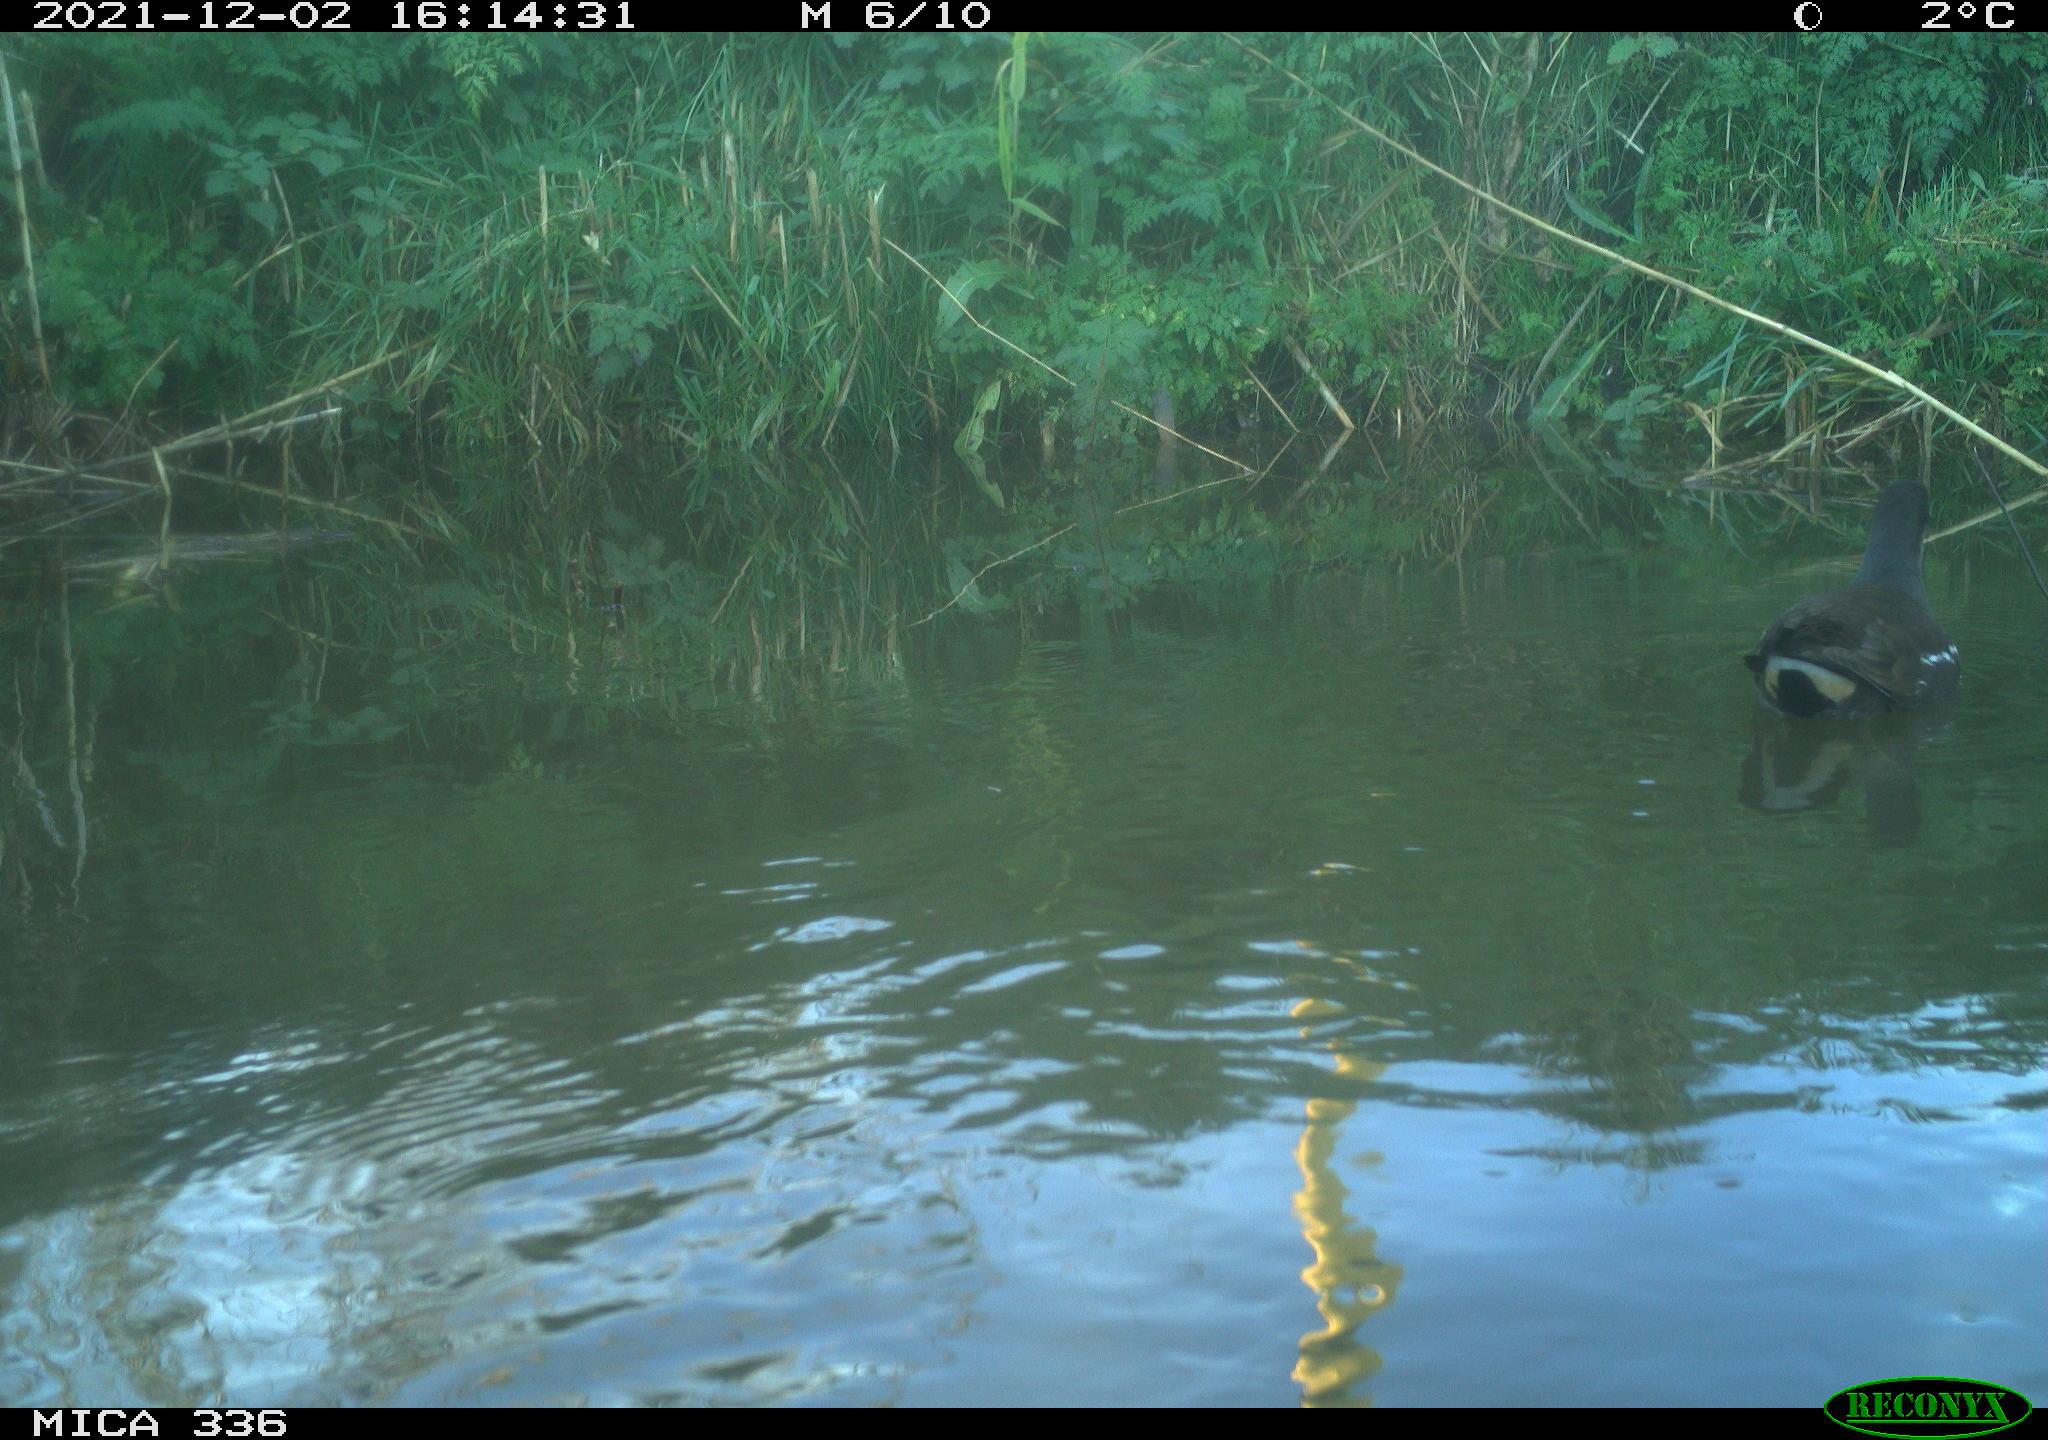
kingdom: Animalia
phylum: Chordata
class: Aves
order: Gruiformes
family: Rallidae
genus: Gallinula
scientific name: Gallinula chloropus
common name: Common moorhen
